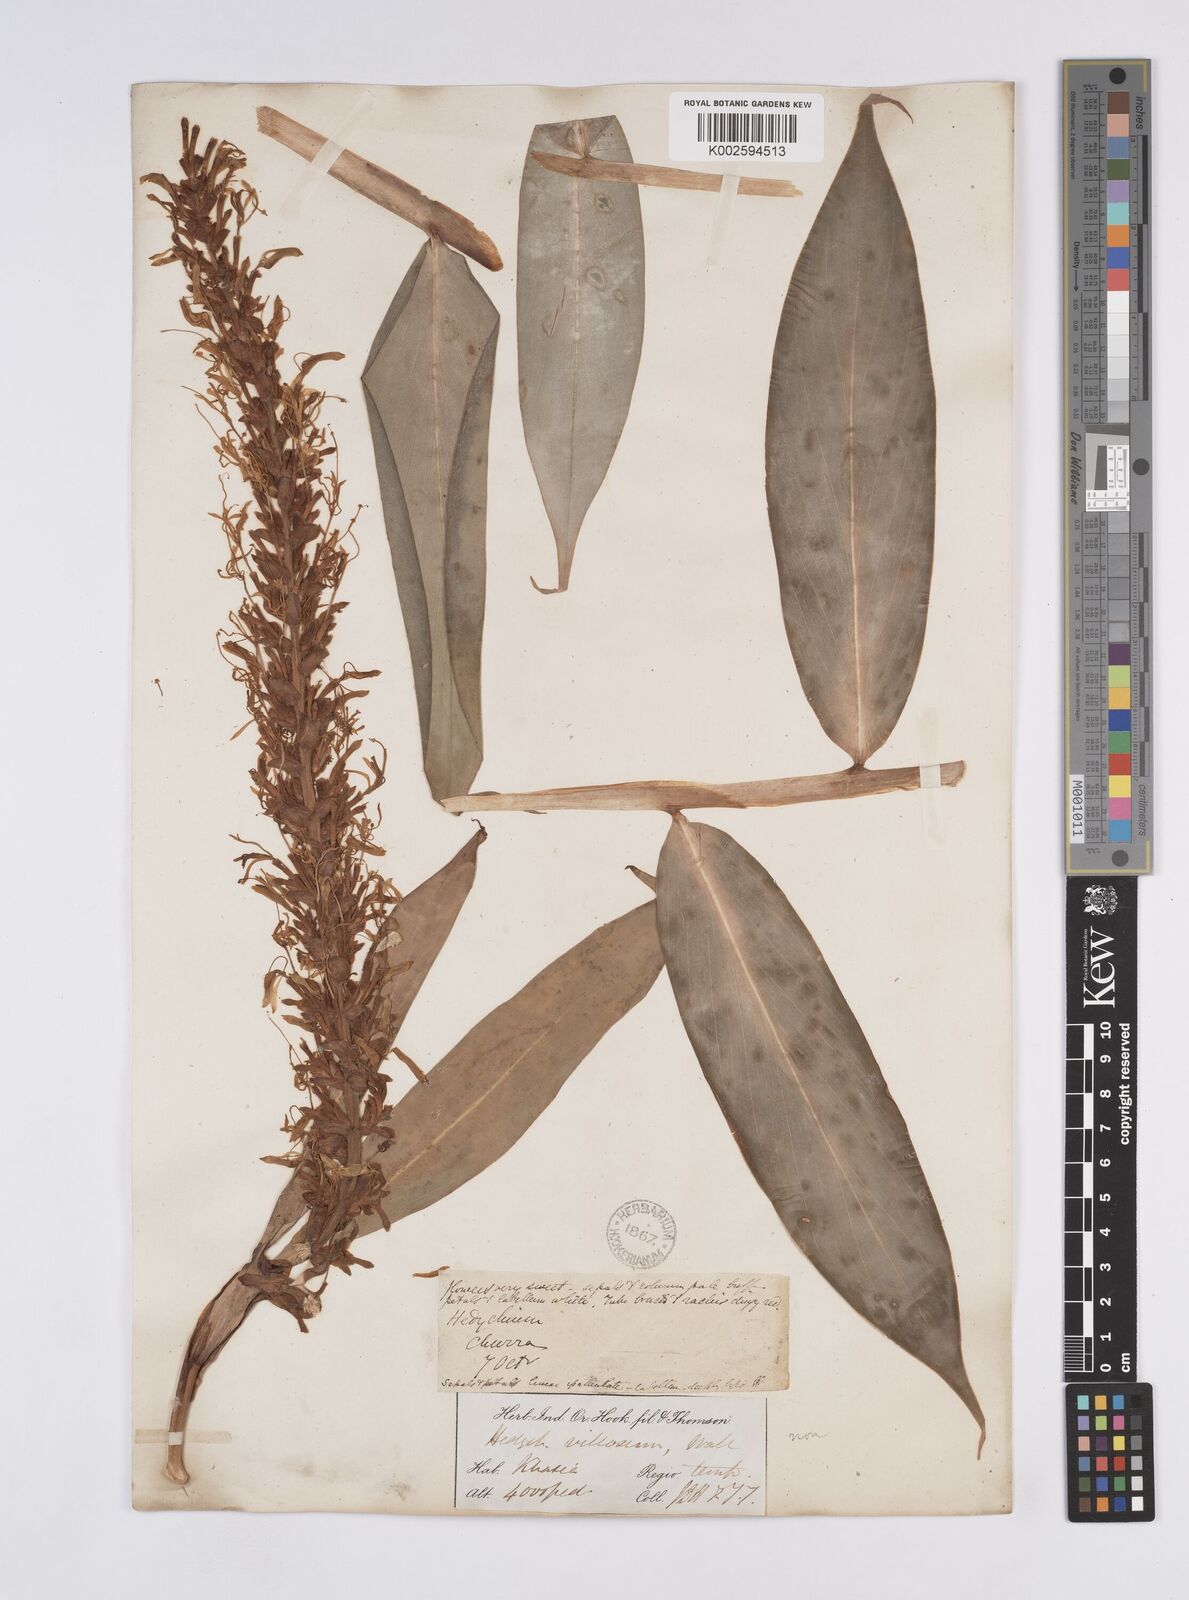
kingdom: Plantae
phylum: Tracheophyta
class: Liliopsida
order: Zingiberales
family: Zingiberaceae
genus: Hedychium
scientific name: Hedychium villosum
